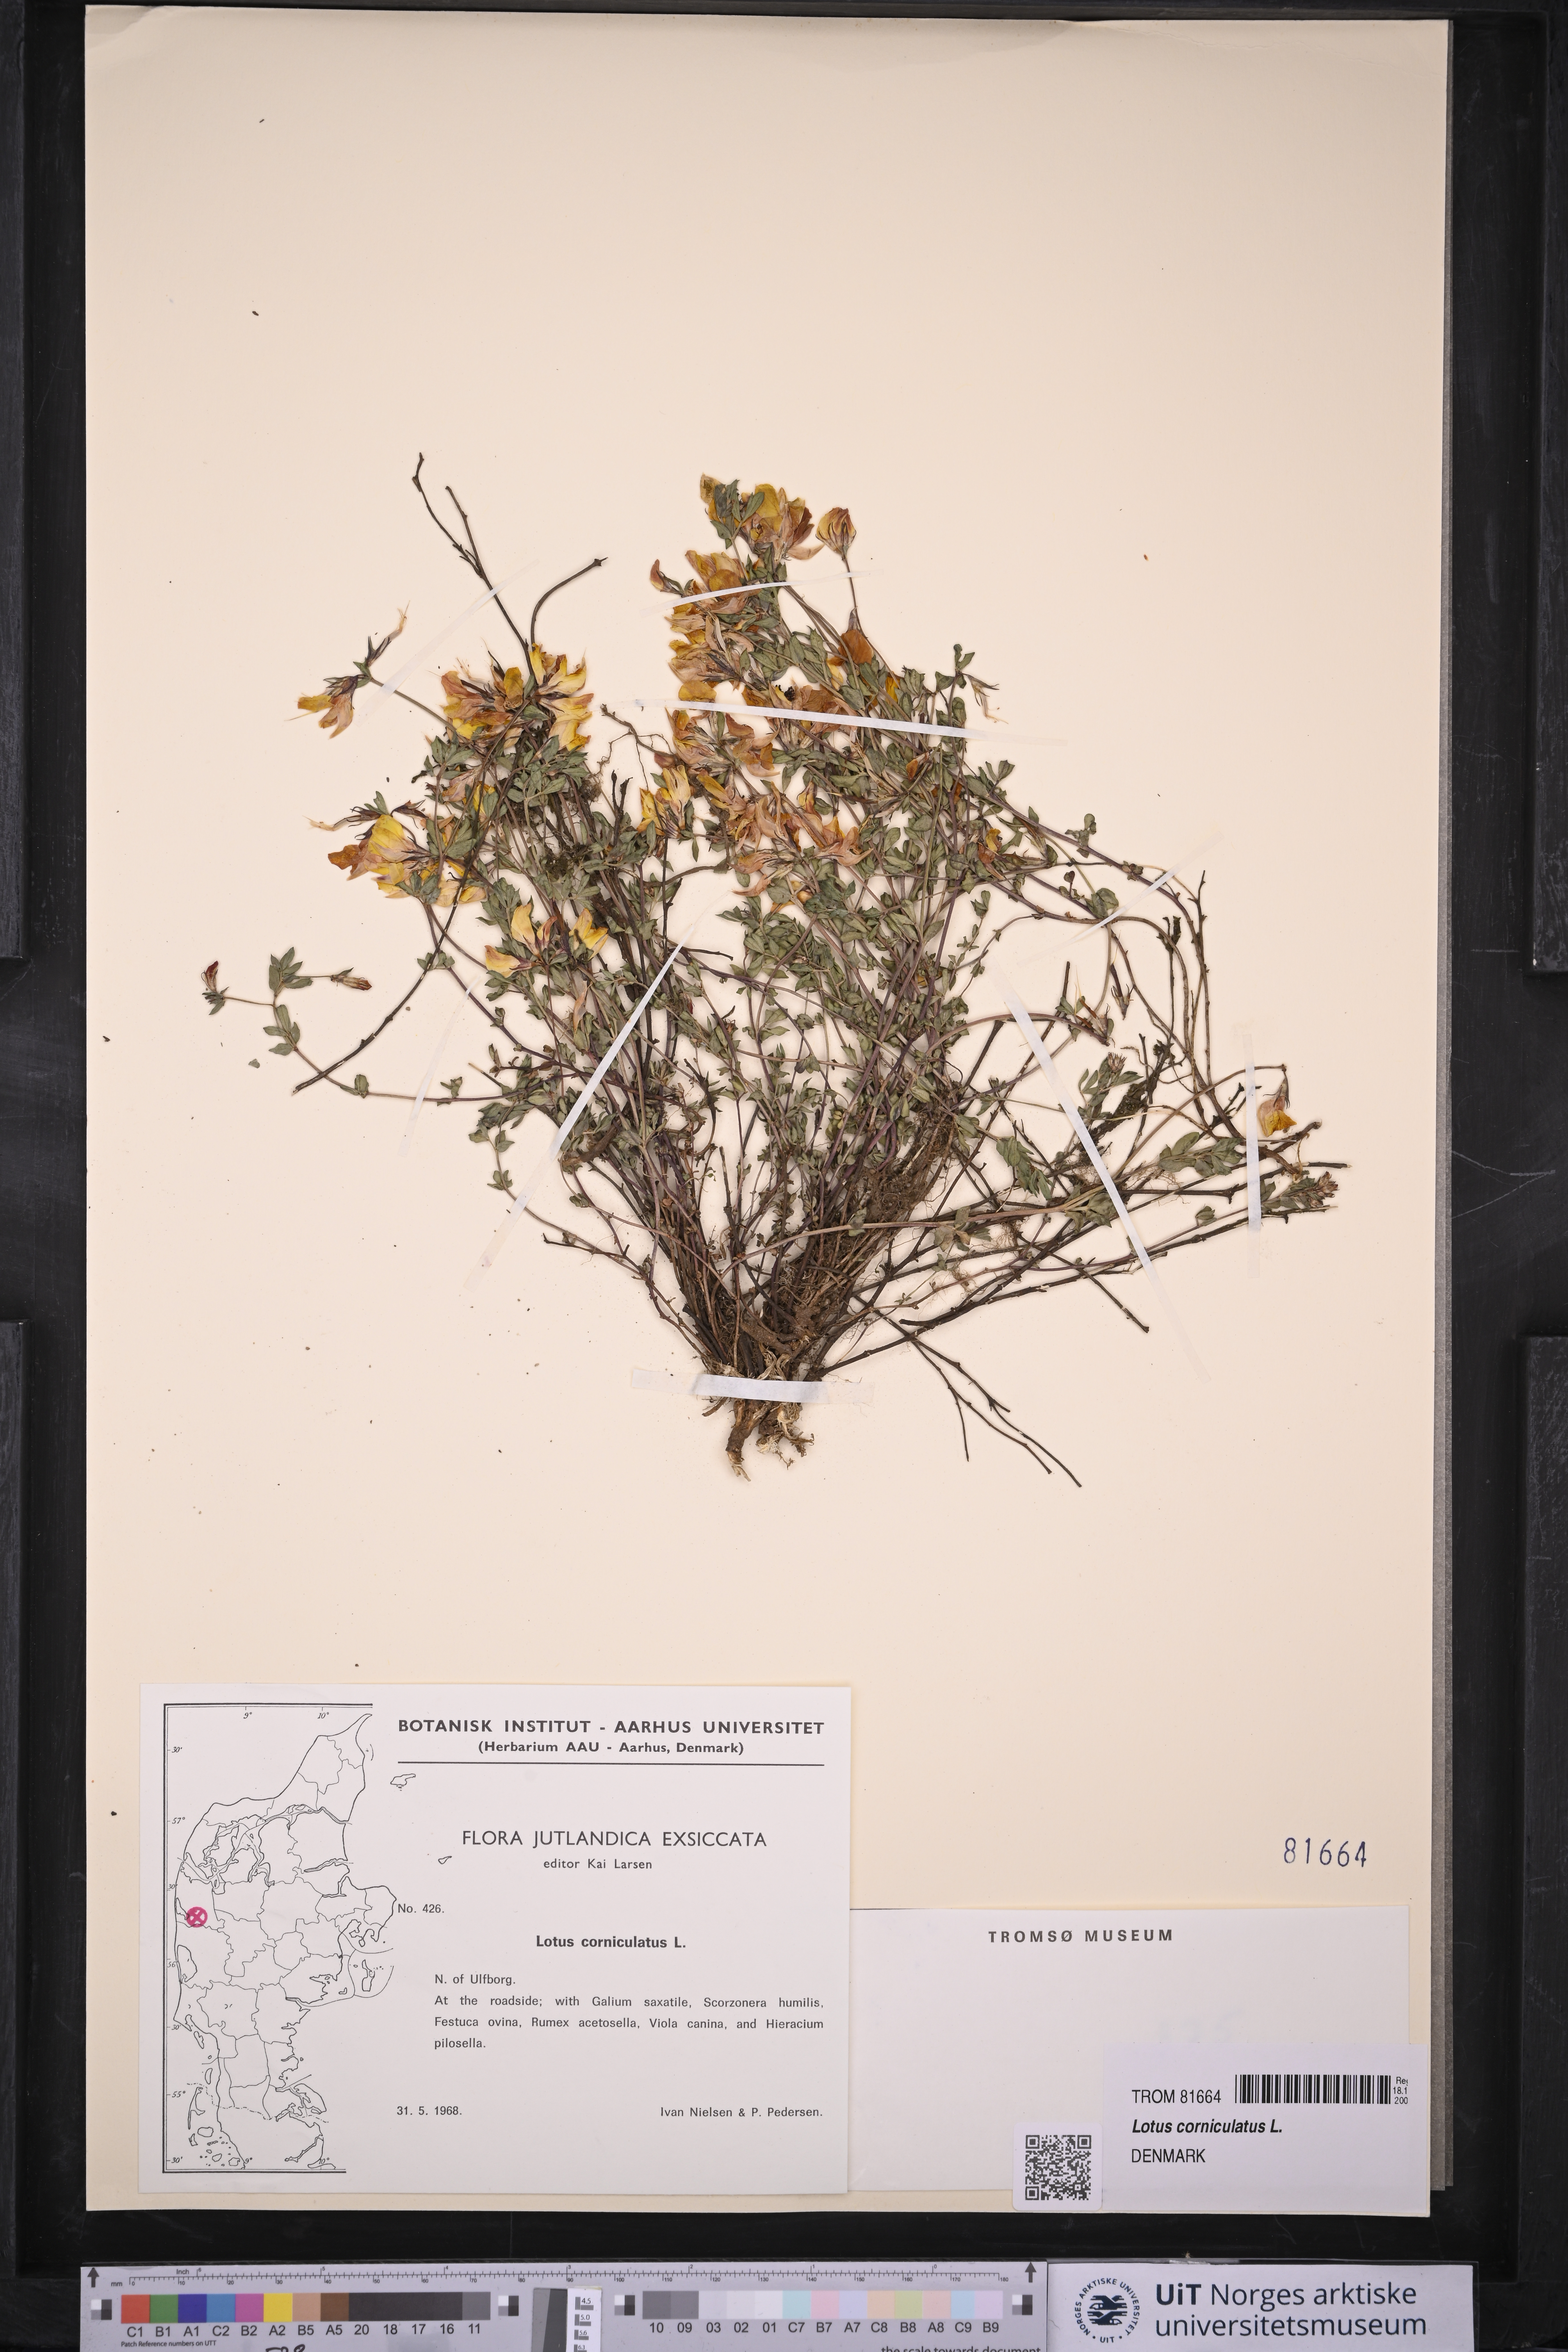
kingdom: Plantae
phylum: Tracheophyta
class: Magnoliopsida
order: Fabales
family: Fabaceae
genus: Lotus
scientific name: Lotus corniculatus
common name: Common bird's-foot-trefoil
